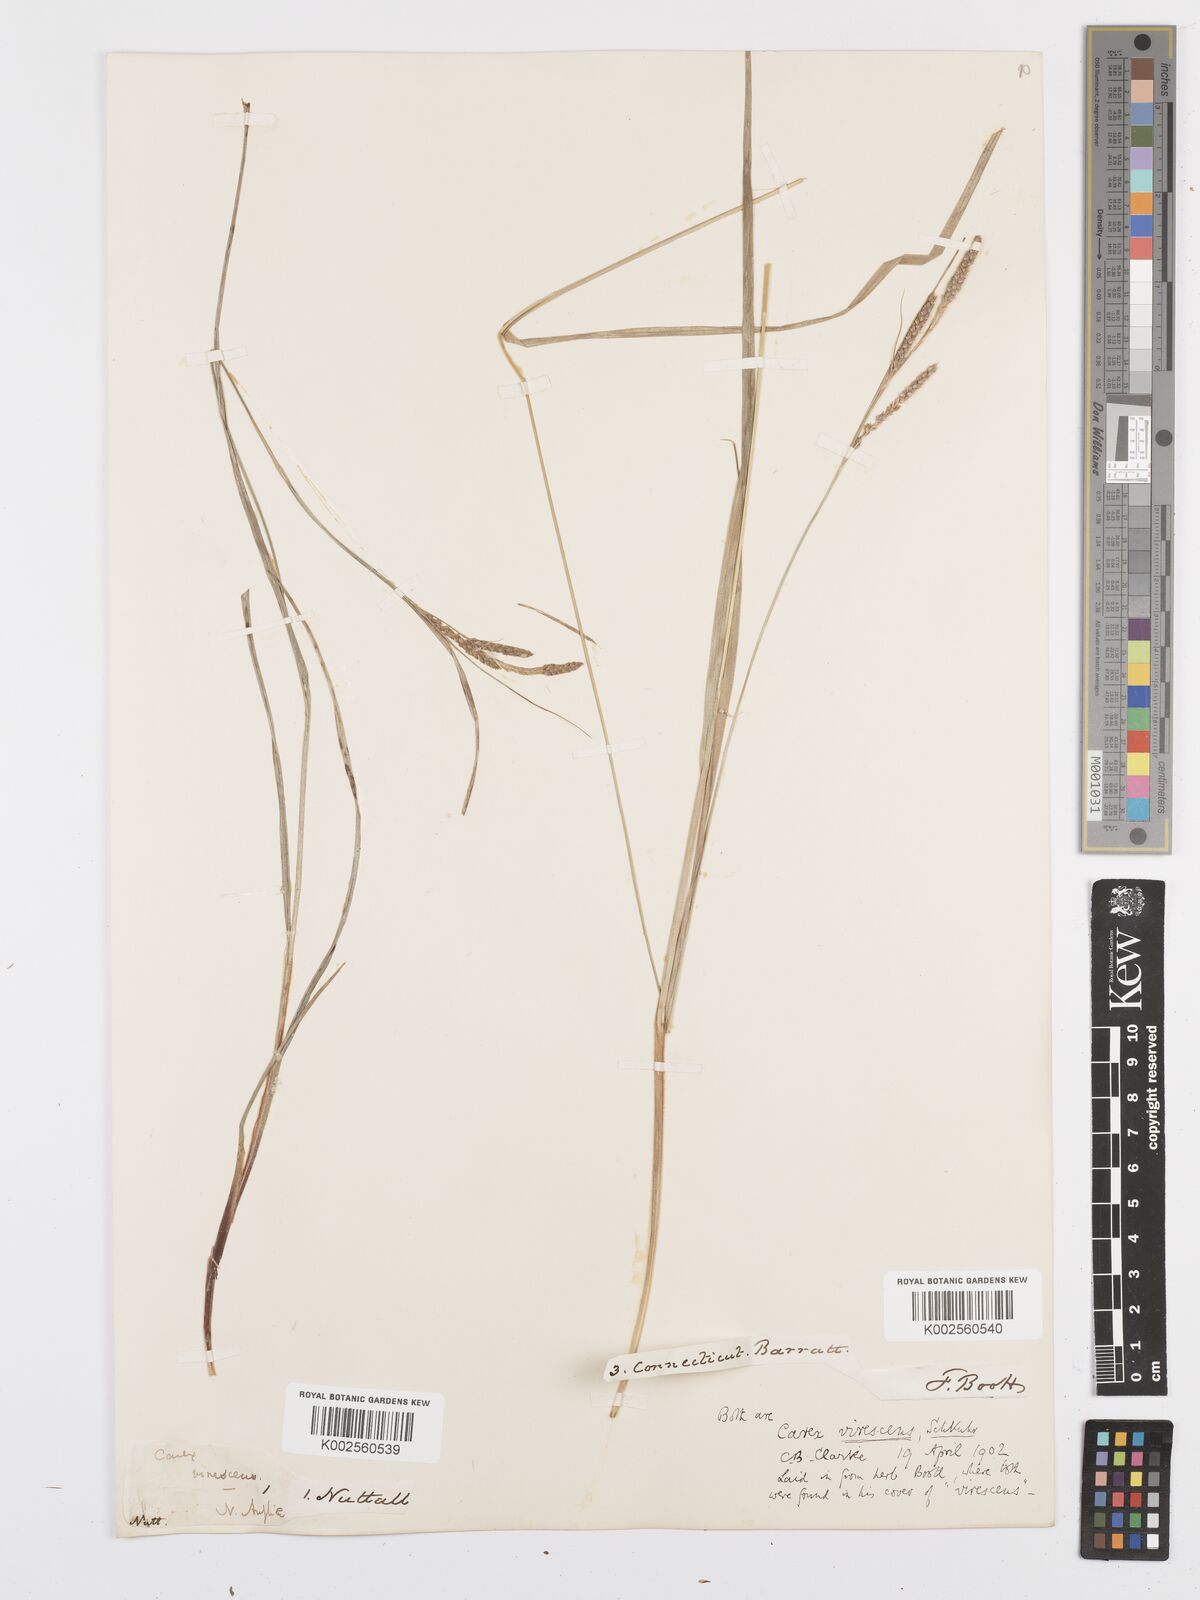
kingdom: Plantae
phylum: Tracheophyta
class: Liliopsida
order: Poales
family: Cyperaceae
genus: Carex
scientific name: Carex virescens
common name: Ribbed sedge
